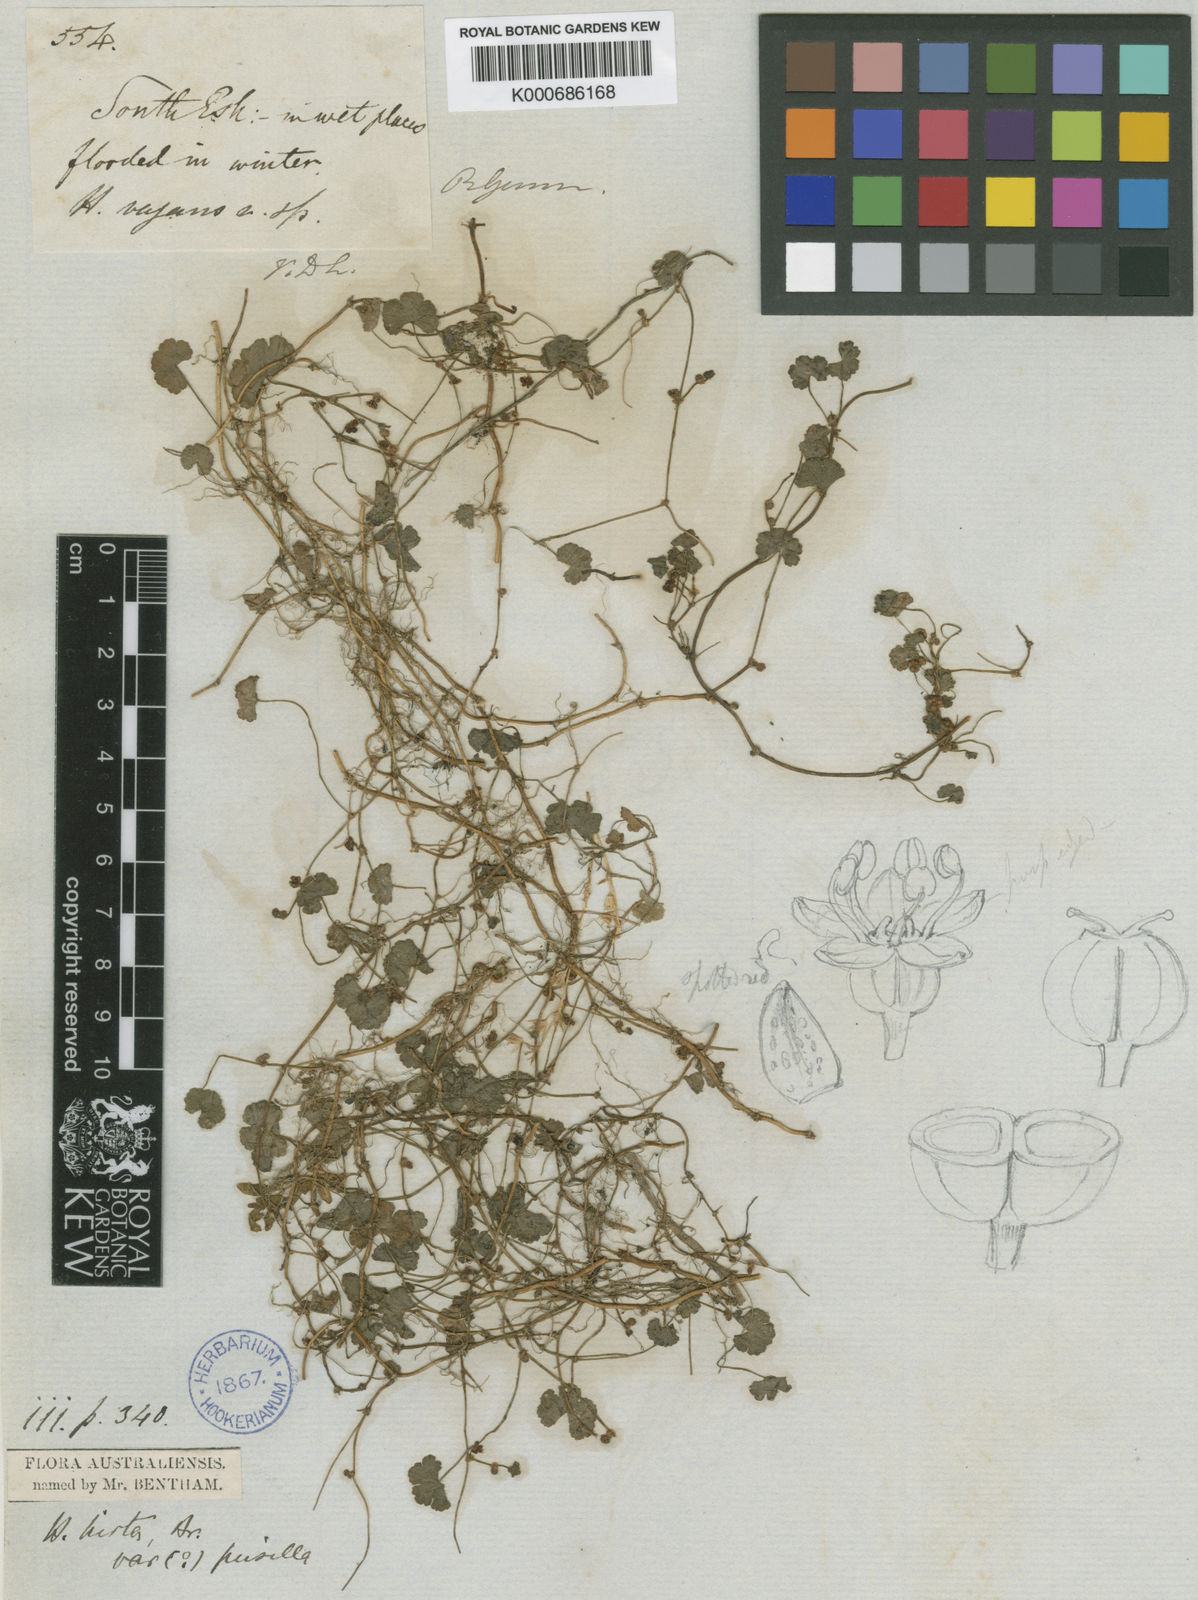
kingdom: Plantae
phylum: Tracheophyta
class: Magnoliopsida
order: Apiales
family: Araliaceae
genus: Hydrocotyle
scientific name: Hydrocotyle hirta
